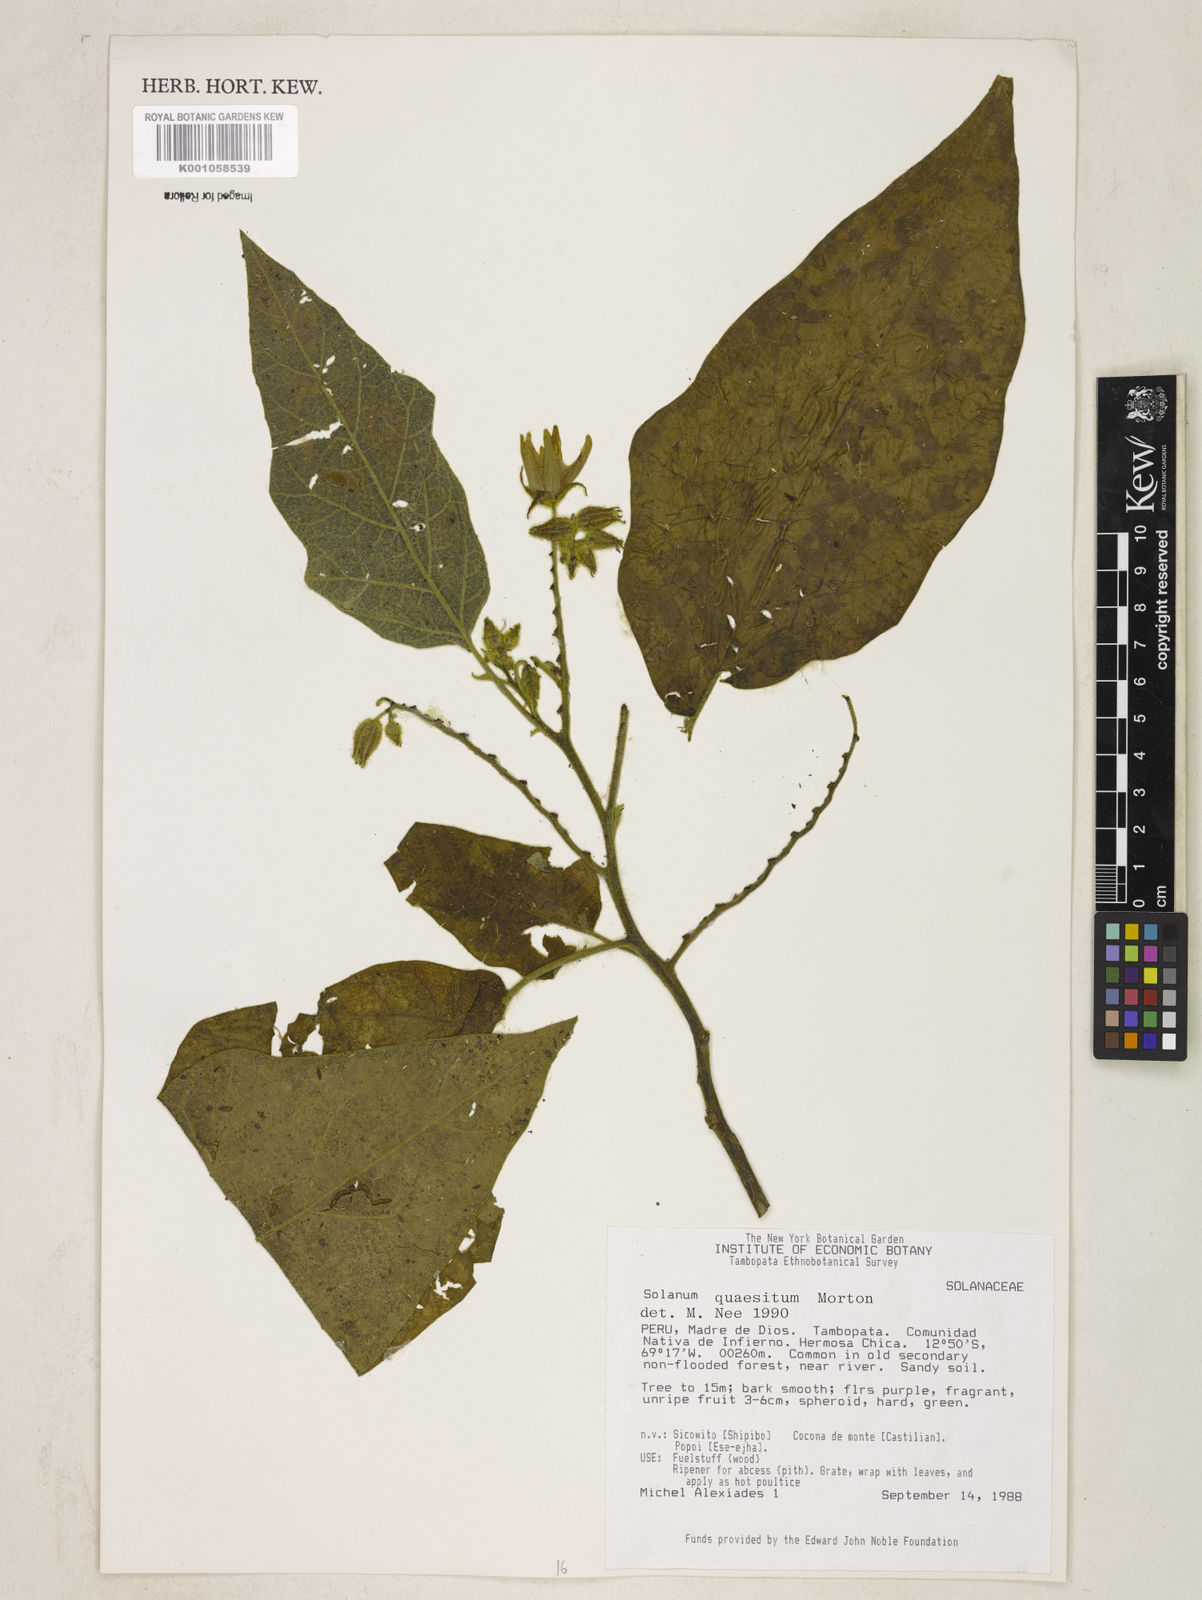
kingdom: Plantae
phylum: Tracheophyta
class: Magnoliopsida
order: Solanales
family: Solanaceae
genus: Solanum
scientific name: Solanum quaesitum
